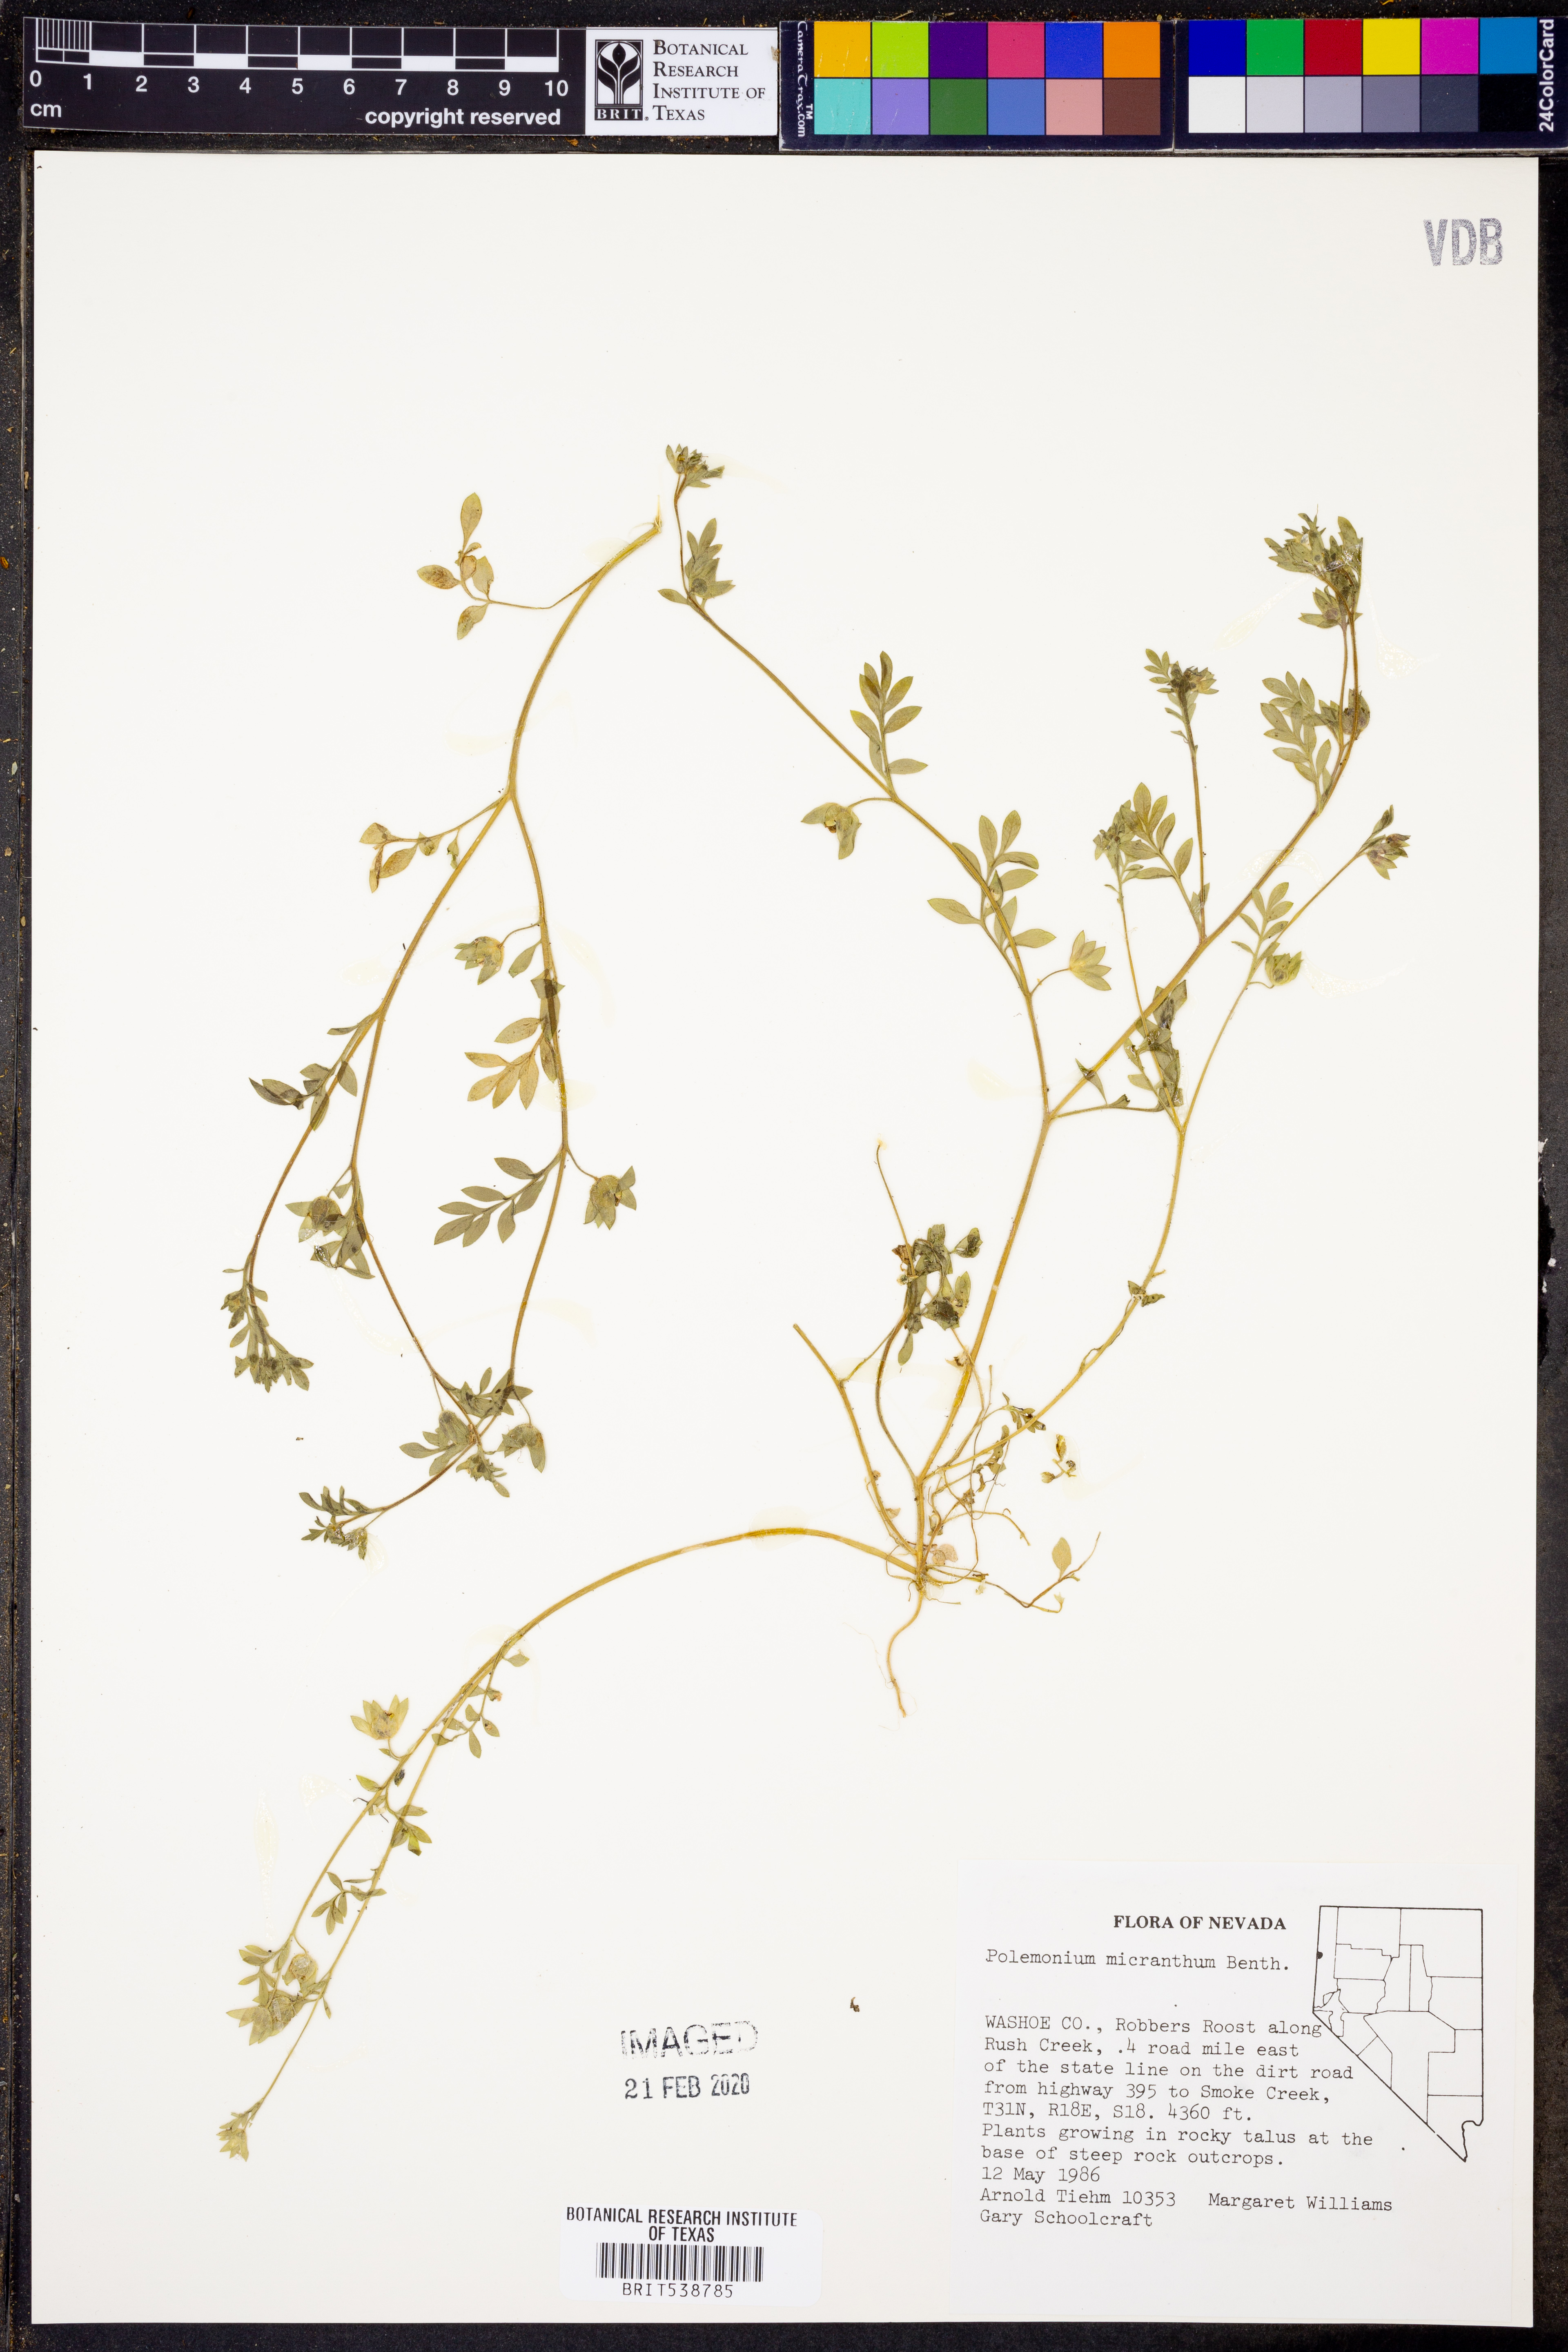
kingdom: Plantae
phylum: Tracheophyta
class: Magnoliopsida
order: Ericales
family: Polemoniaceae
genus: Polemonium
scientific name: Polemonium micranthum
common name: Annual jacob's-ladder
